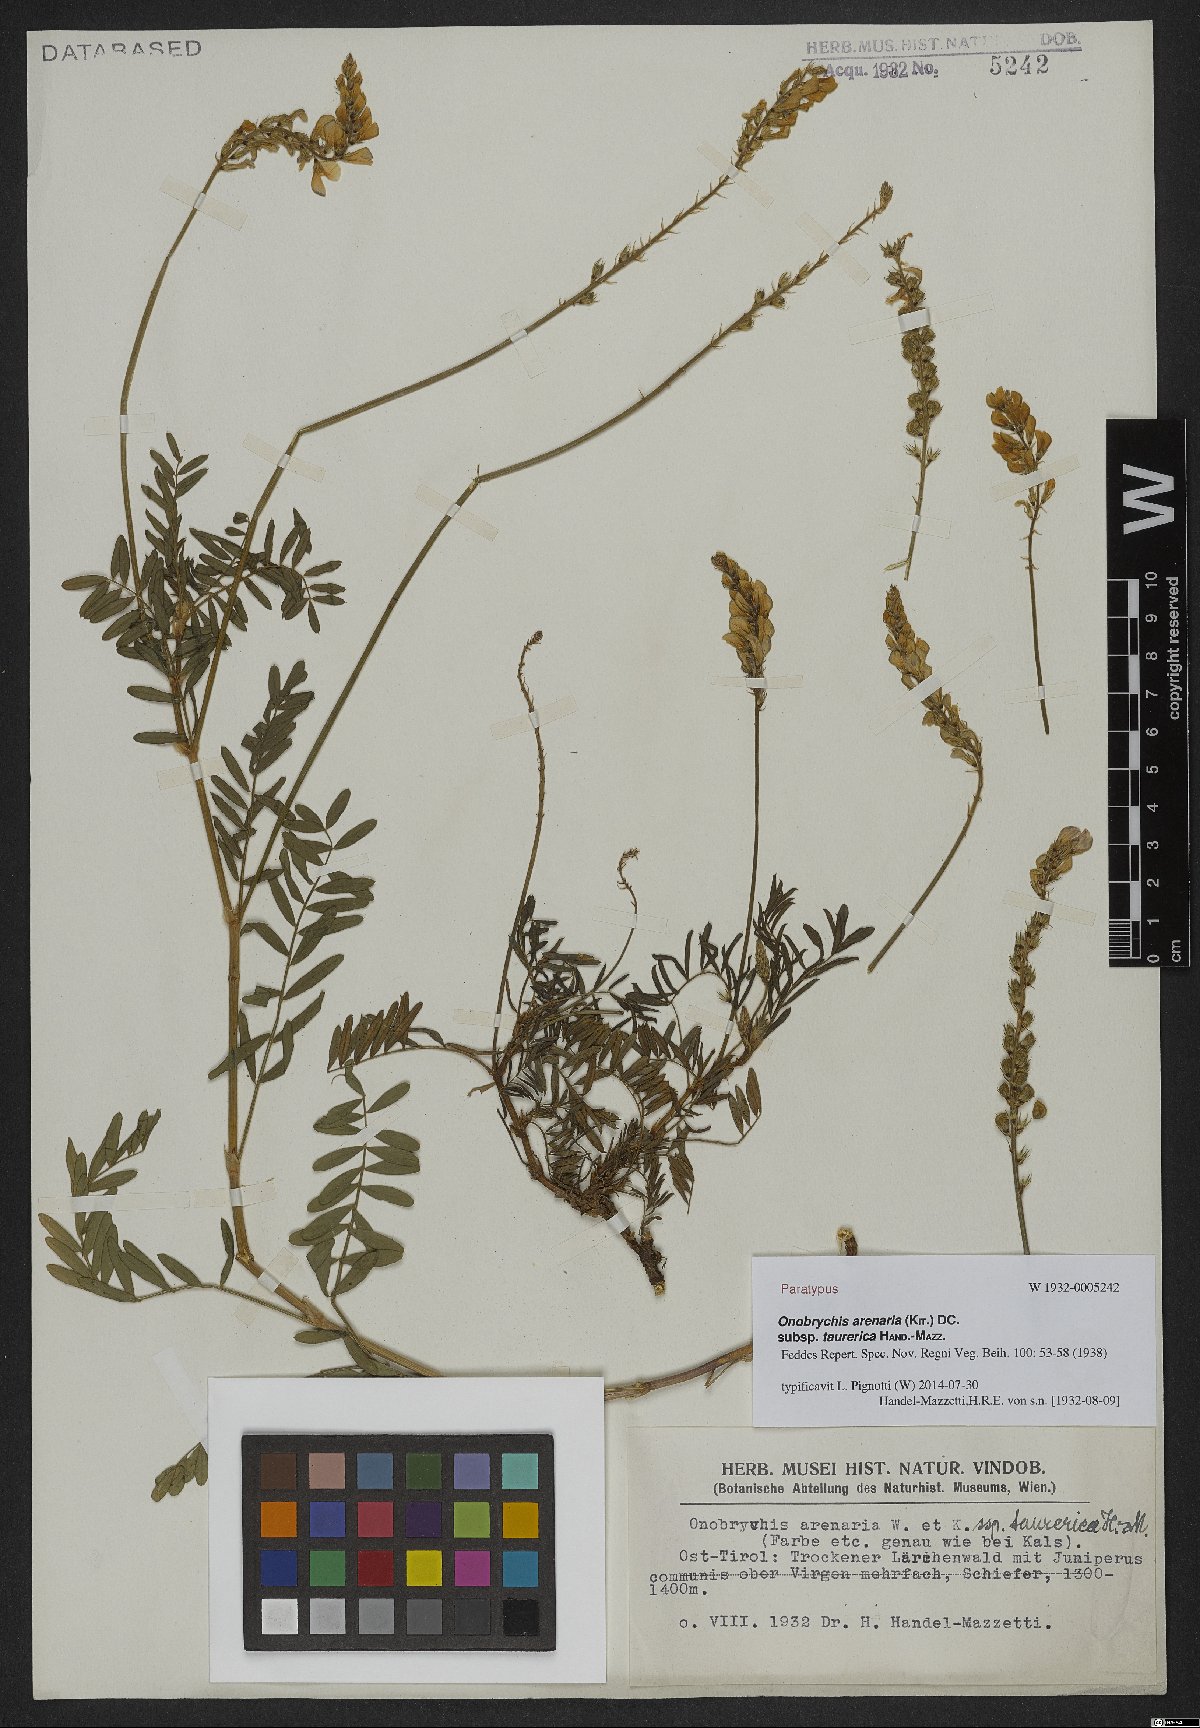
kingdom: Plantae
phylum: Tracheophyta
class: Magnoliopsida
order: Fabales
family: Fabaceae
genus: Onobrychis
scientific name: Onobrychis arenaria
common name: Sand esparcet
